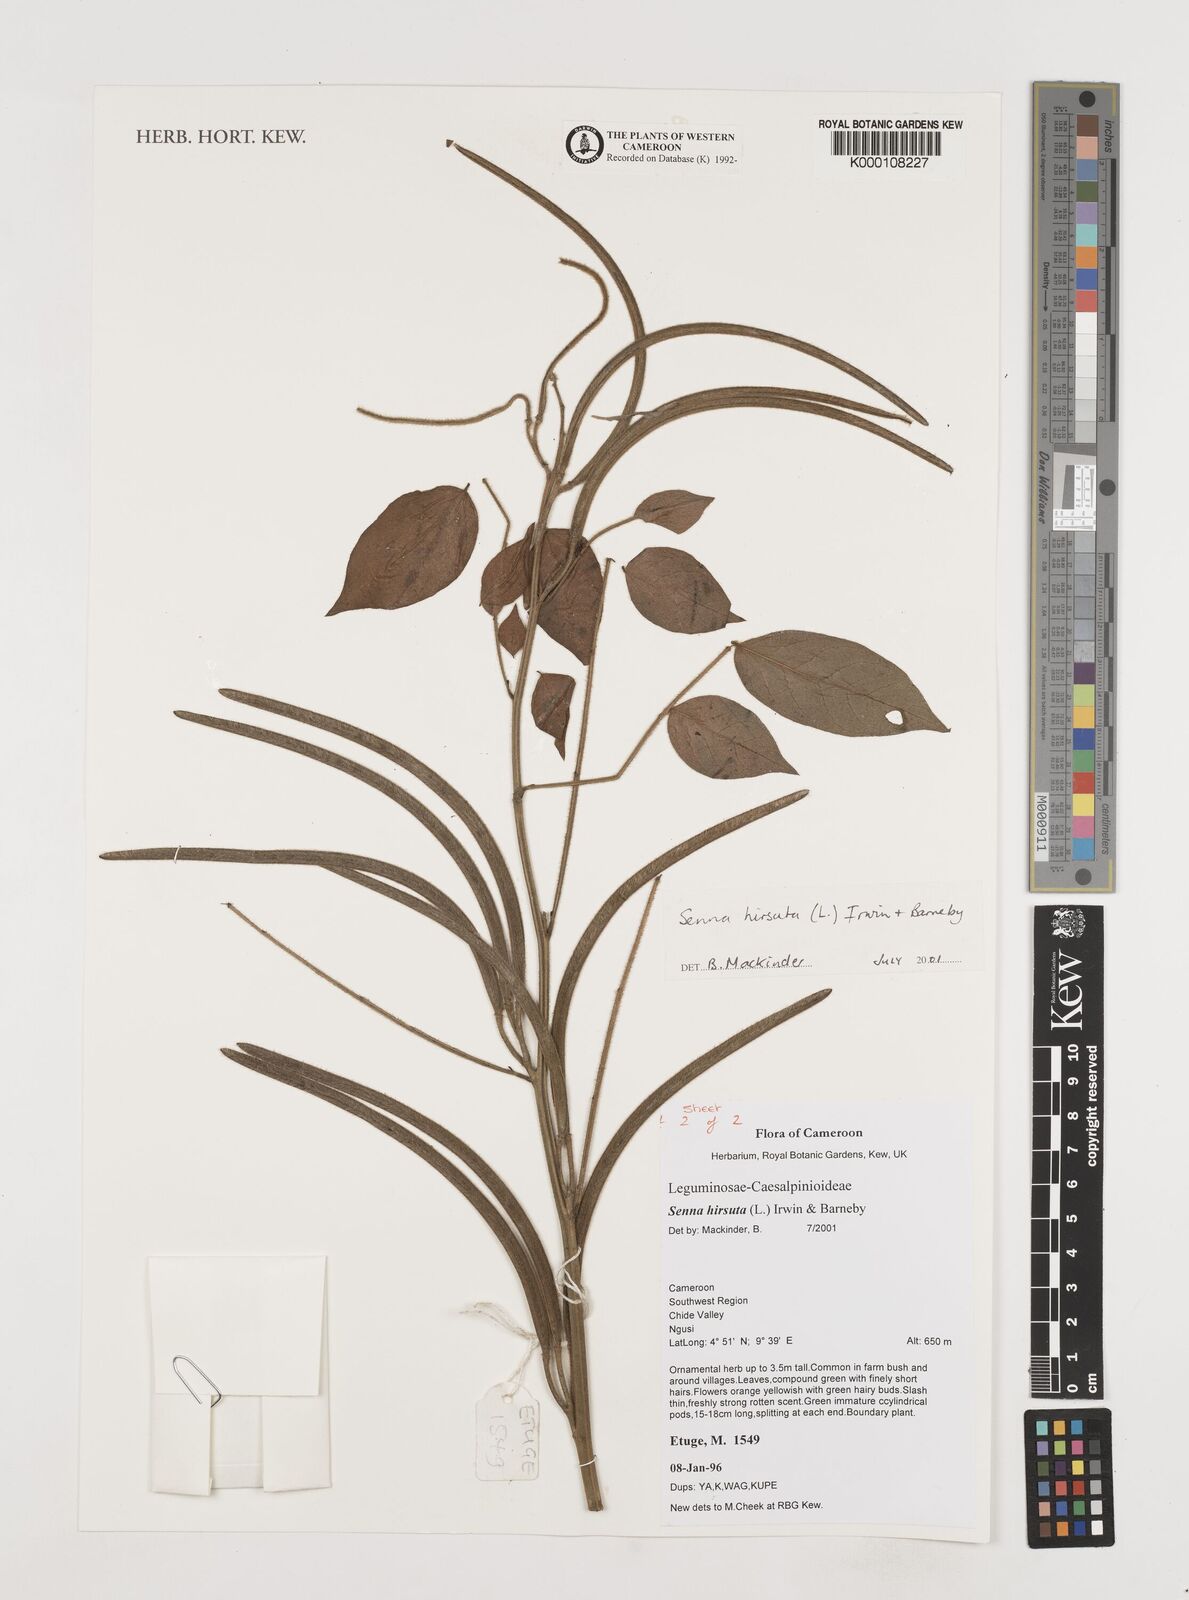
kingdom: Plantae
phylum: Tracheophyta
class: Magnoliopsida
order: Fabales
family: Fabaceae
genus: Senna
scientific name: Senna hirsuta
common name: Woolly senna
